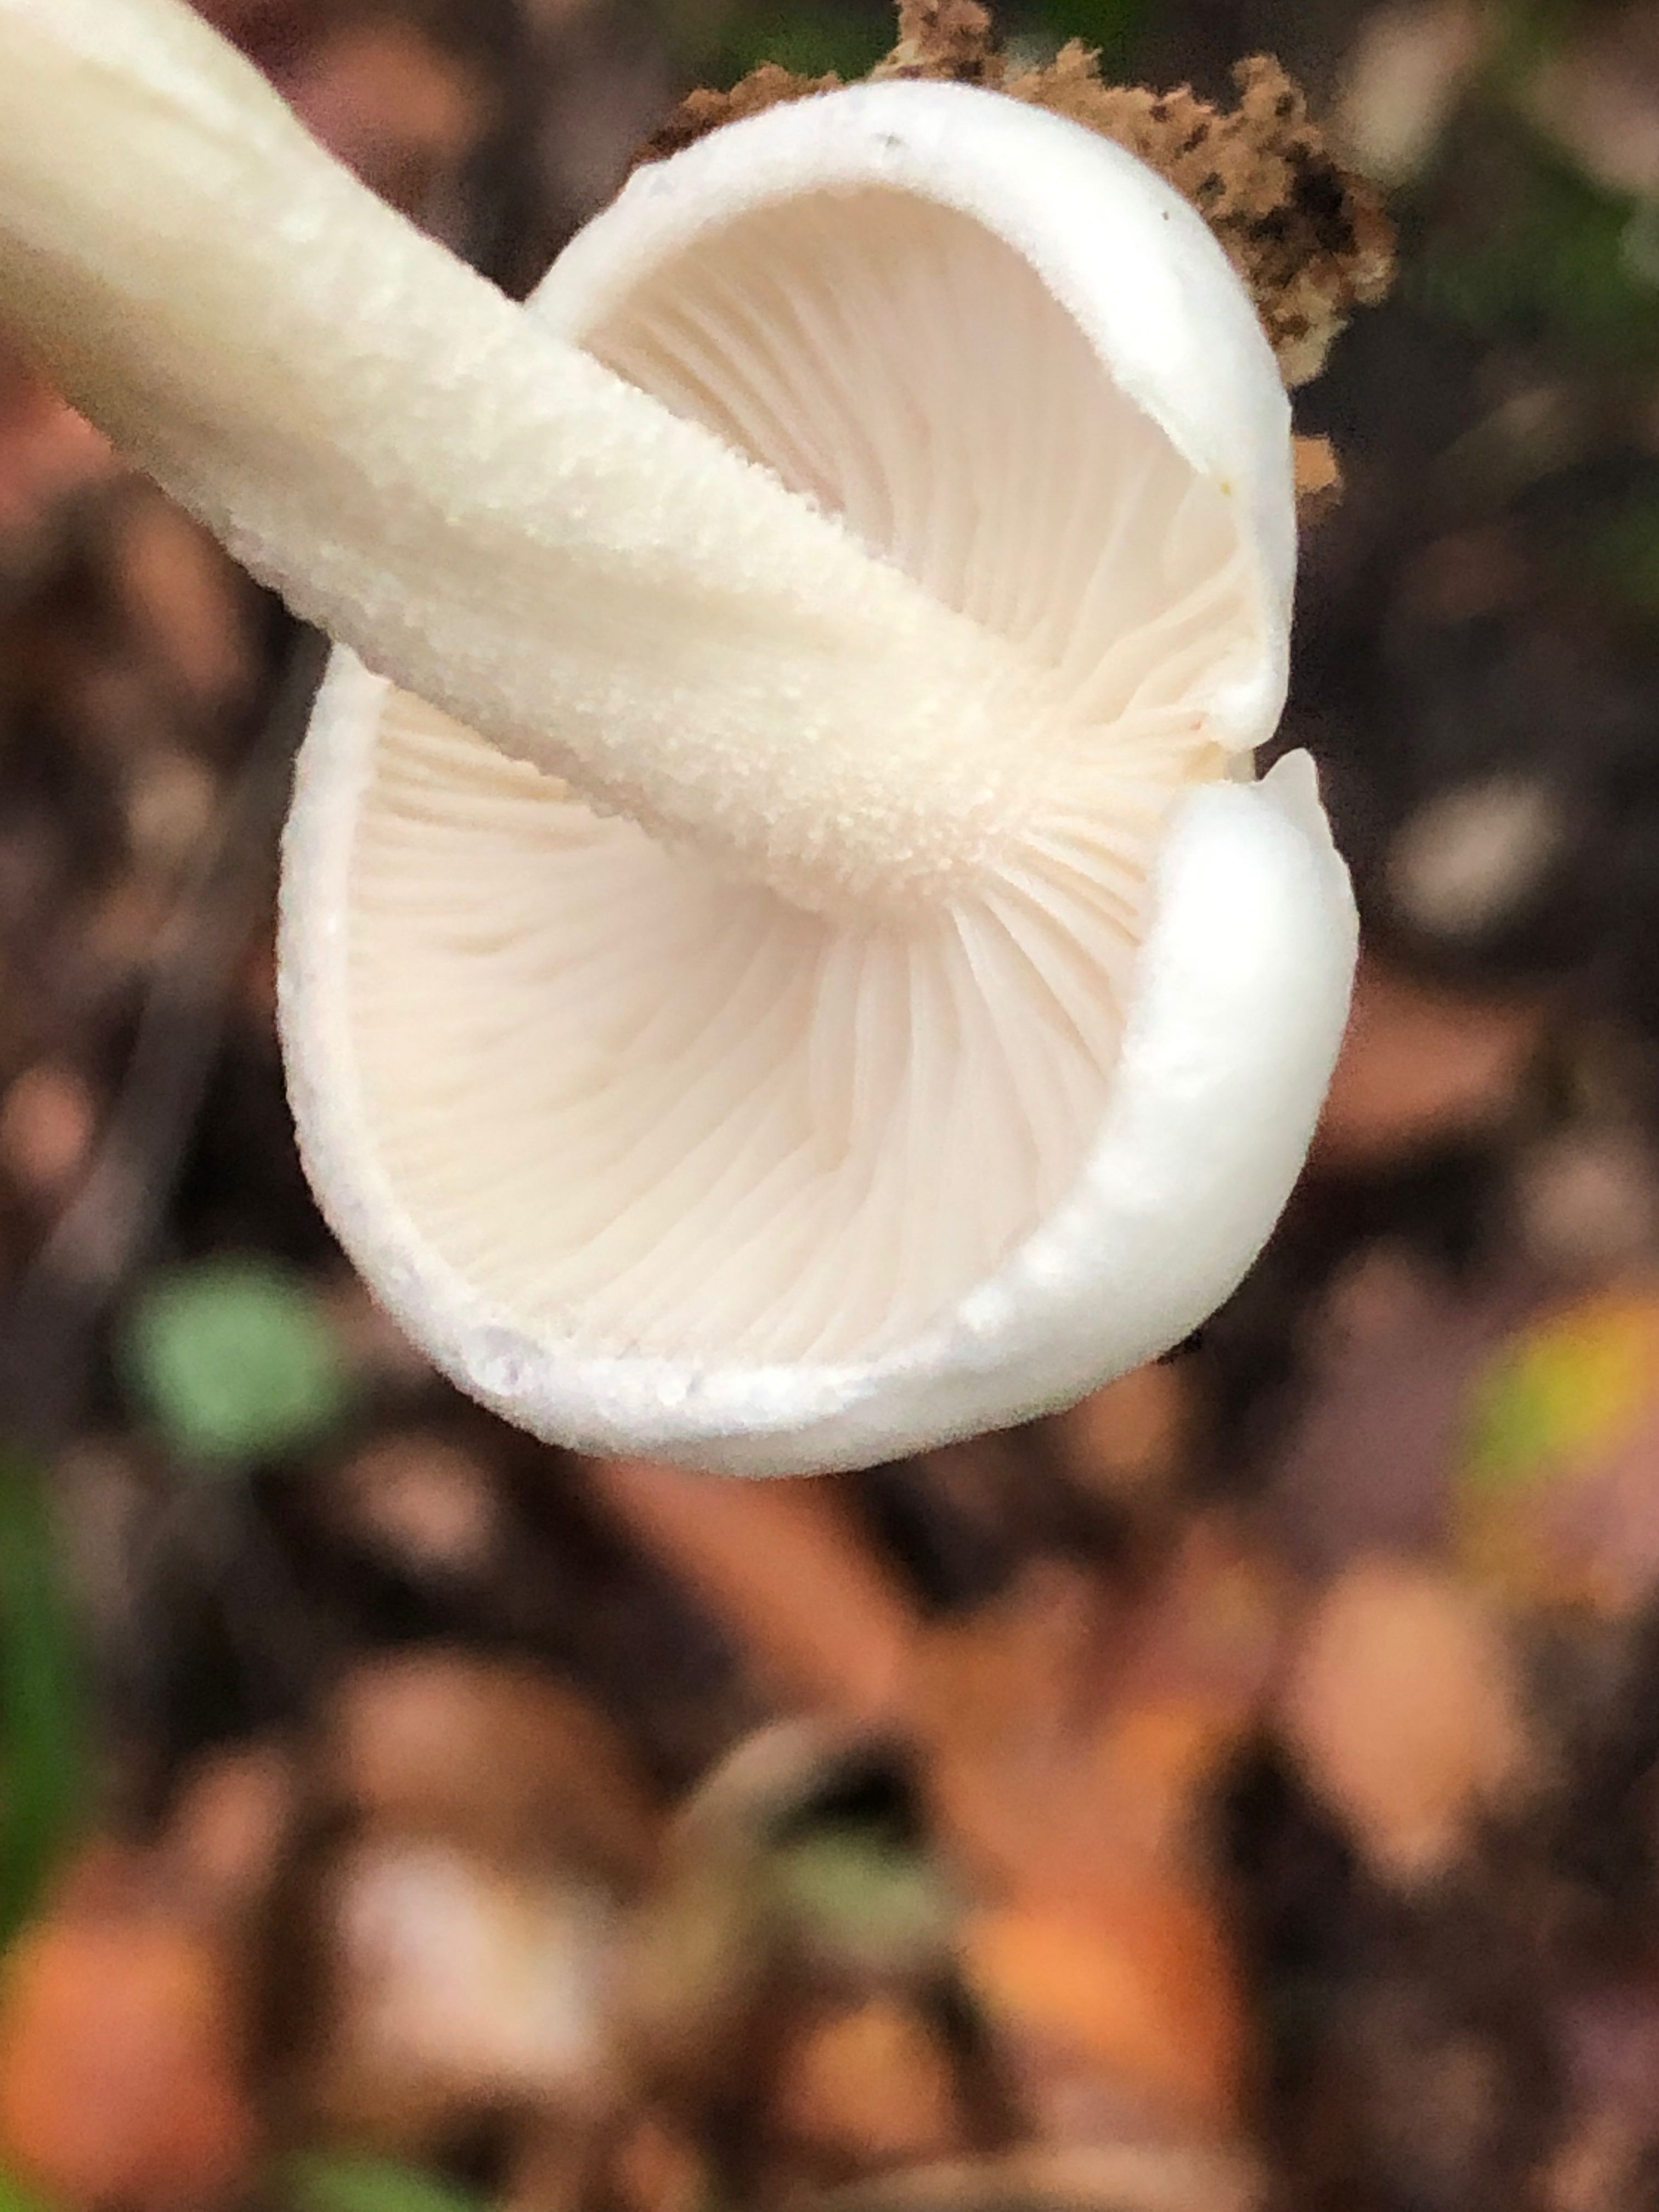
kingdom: Fungi
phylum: Basidiomycota
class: Agaricomycetes
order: Agaricales
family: Hygrophoraceae
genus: Hygrophorus
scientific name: Hygrophorus
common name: sneglehat
